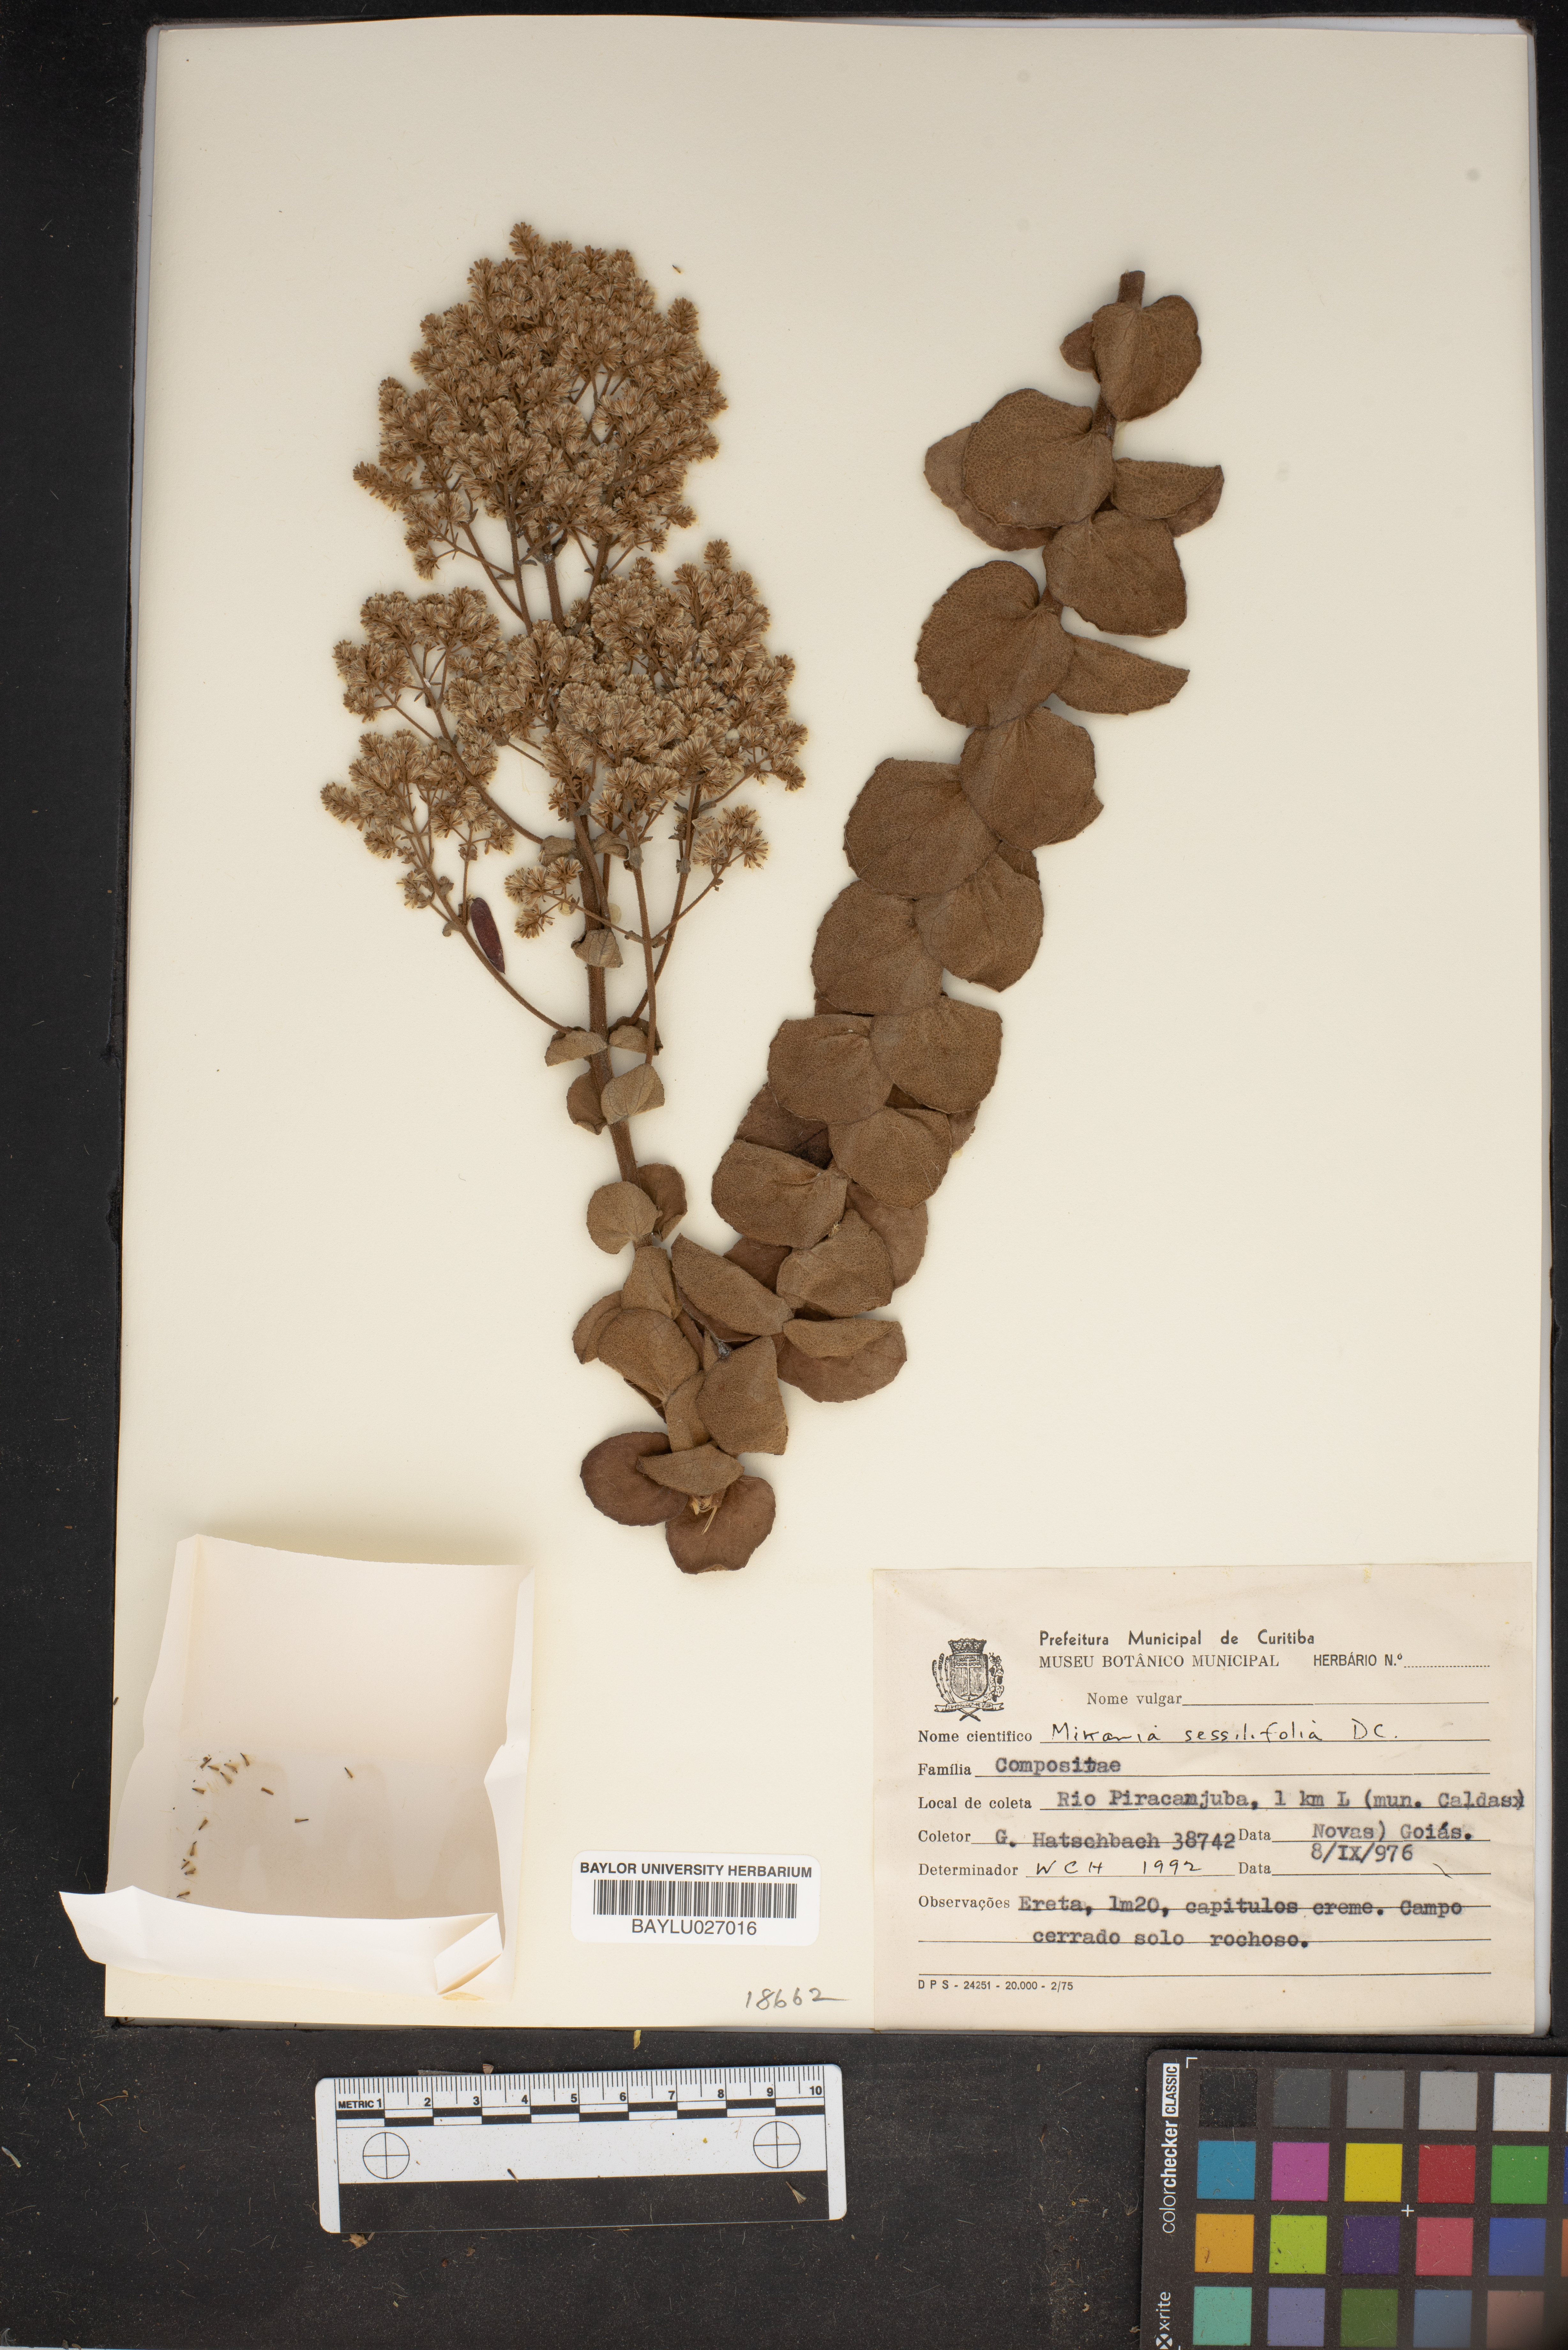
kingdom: Plantae
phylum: Tracheophyta
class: Magnoliopsida
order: Asterales
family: Asteraceae
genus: Mikania
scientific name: Mikania sessilifolia
